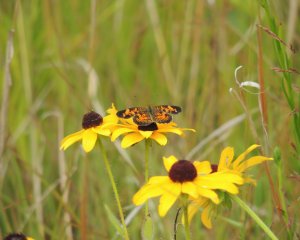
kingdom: Animalia
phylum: Arthropoda
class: Insecta
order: Lepidoptera
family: Nymphalidae
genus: Phyciodes
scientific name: Phyciodes tharos
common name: Pearl Crescent
